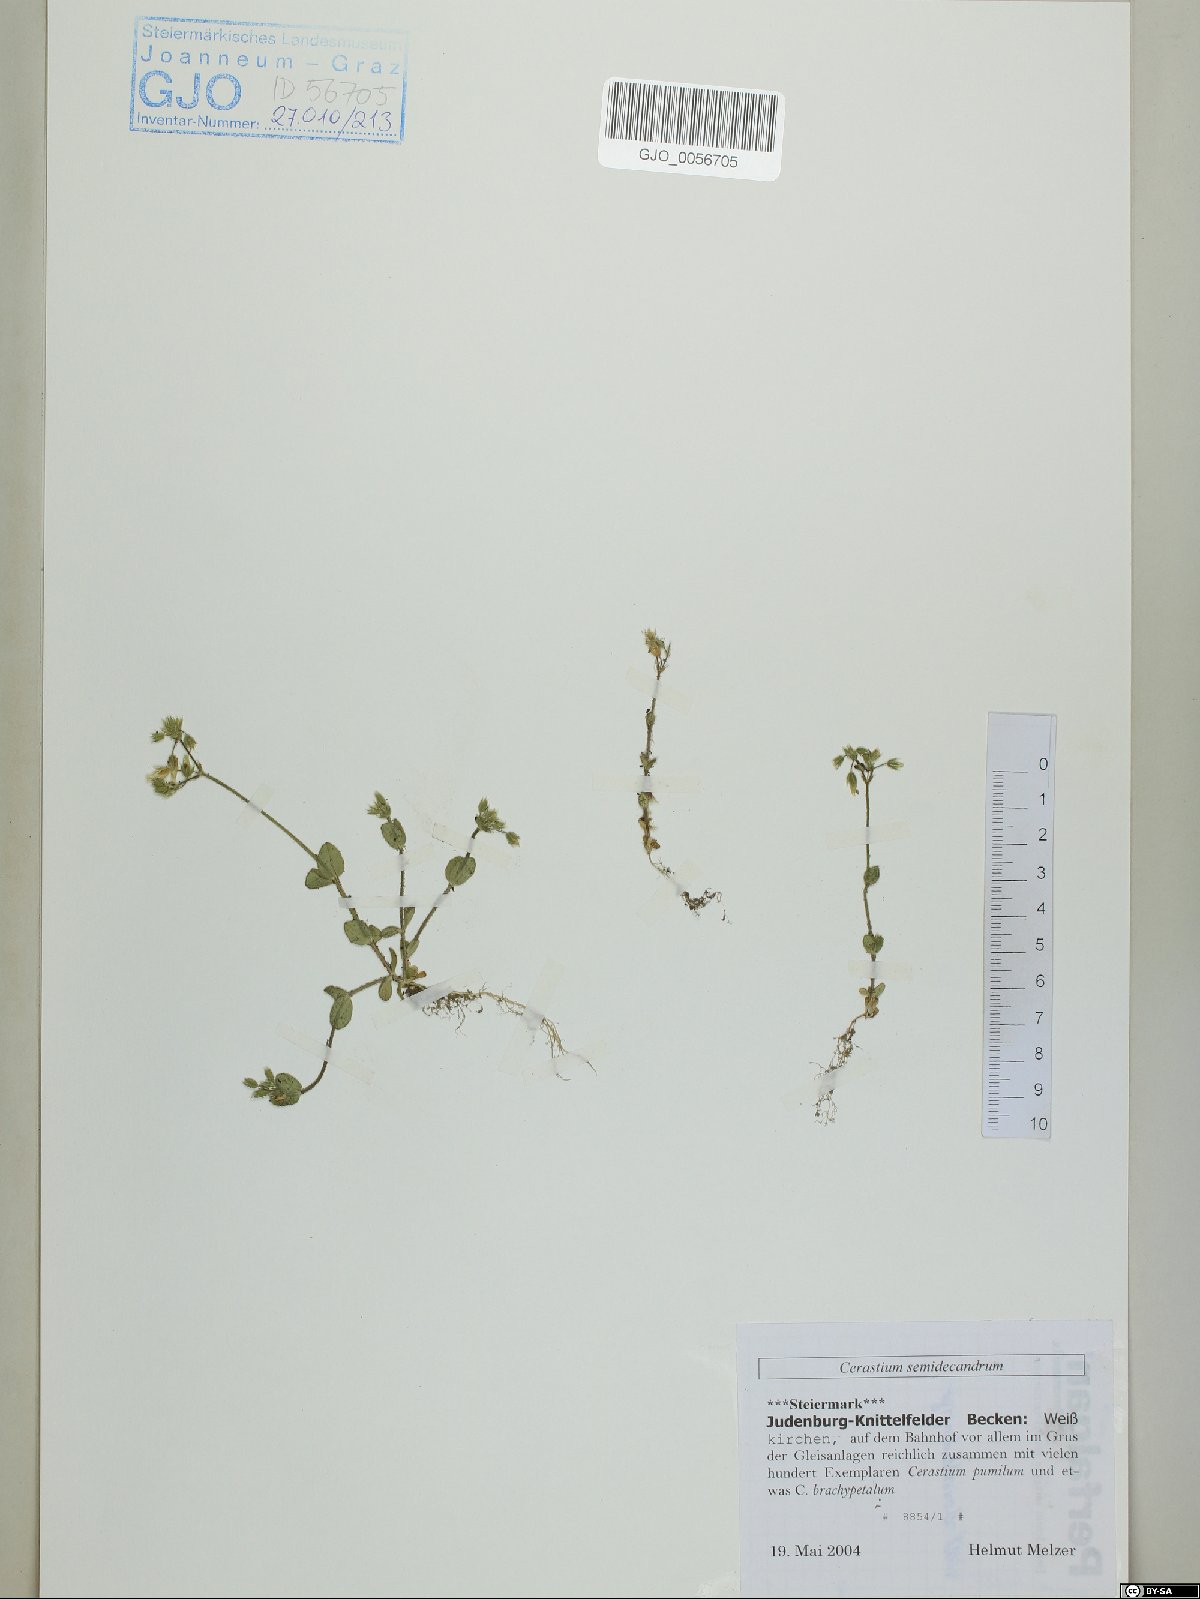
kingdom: Plantae
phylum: Tracheophyta
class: Magnoliopsida
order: Caryophyllales
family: Caryophyllaceae
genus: Cerastium
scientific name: Cerastium semidecandrum
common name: Little mouse-ear
